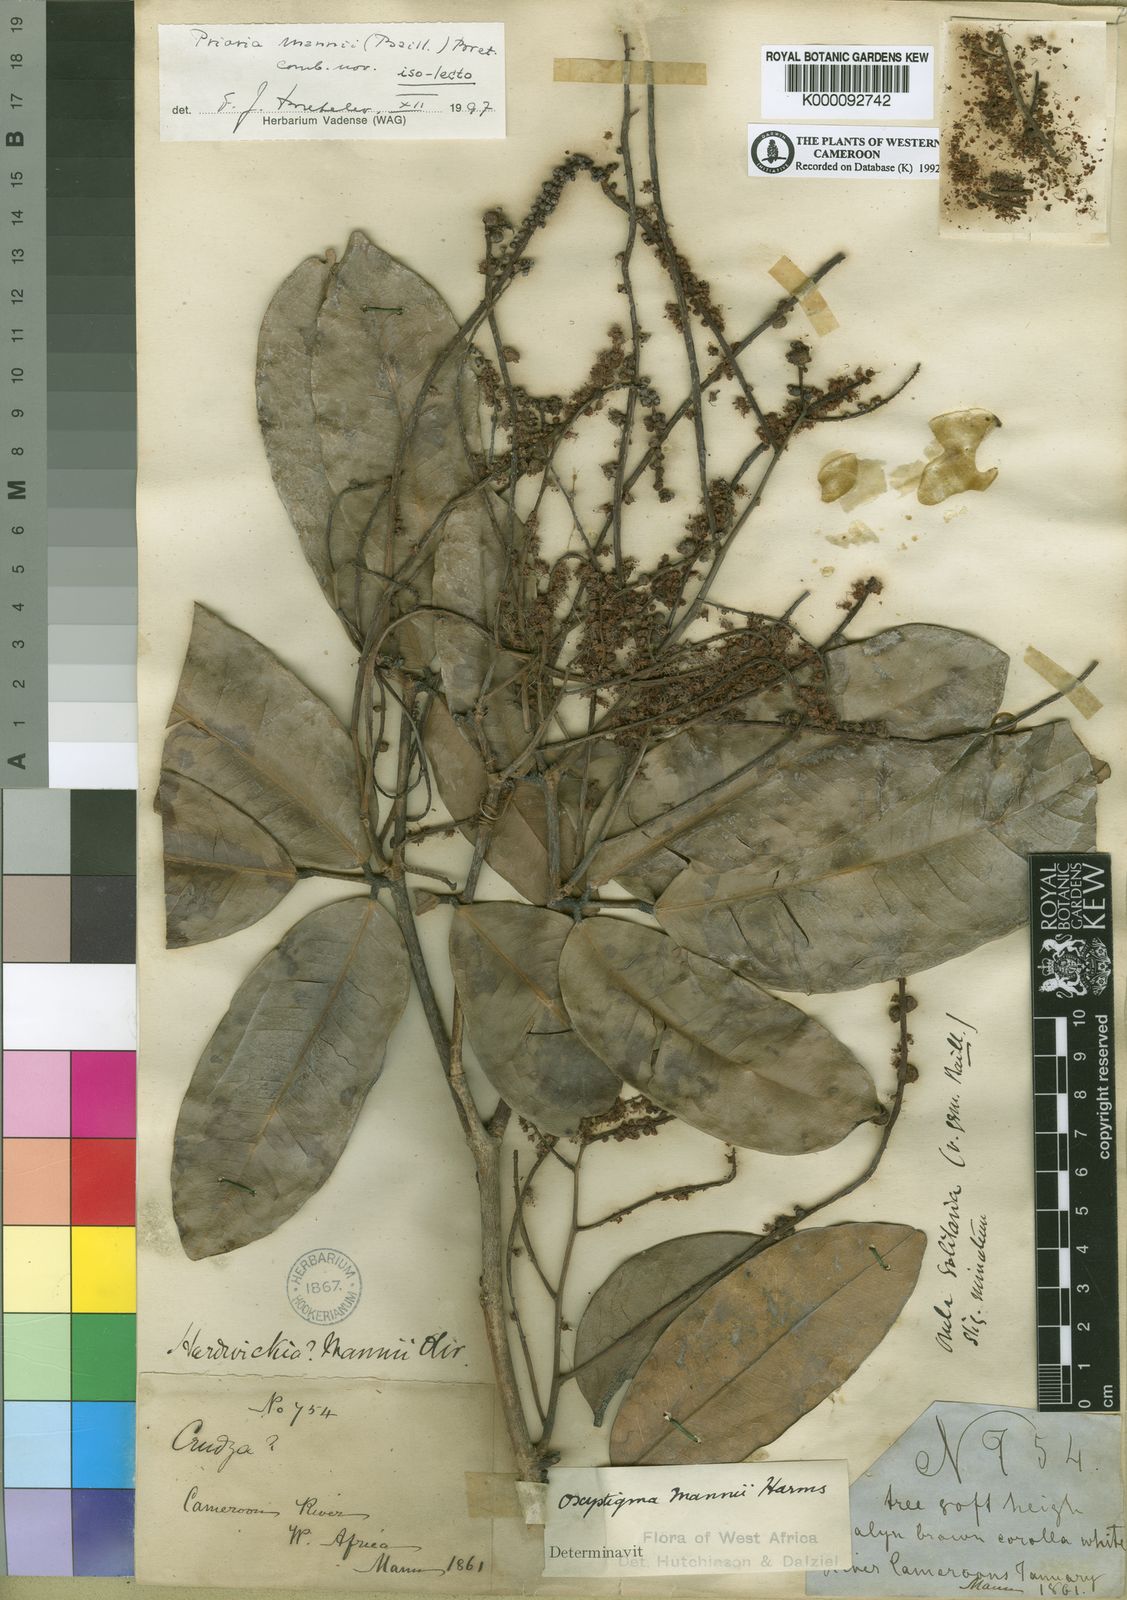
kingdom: Plantae
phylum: Tracheophyta
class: Magnoliopsida
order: Fabales
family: Fabaceae
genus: Prioria
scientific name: Prioria mannii
